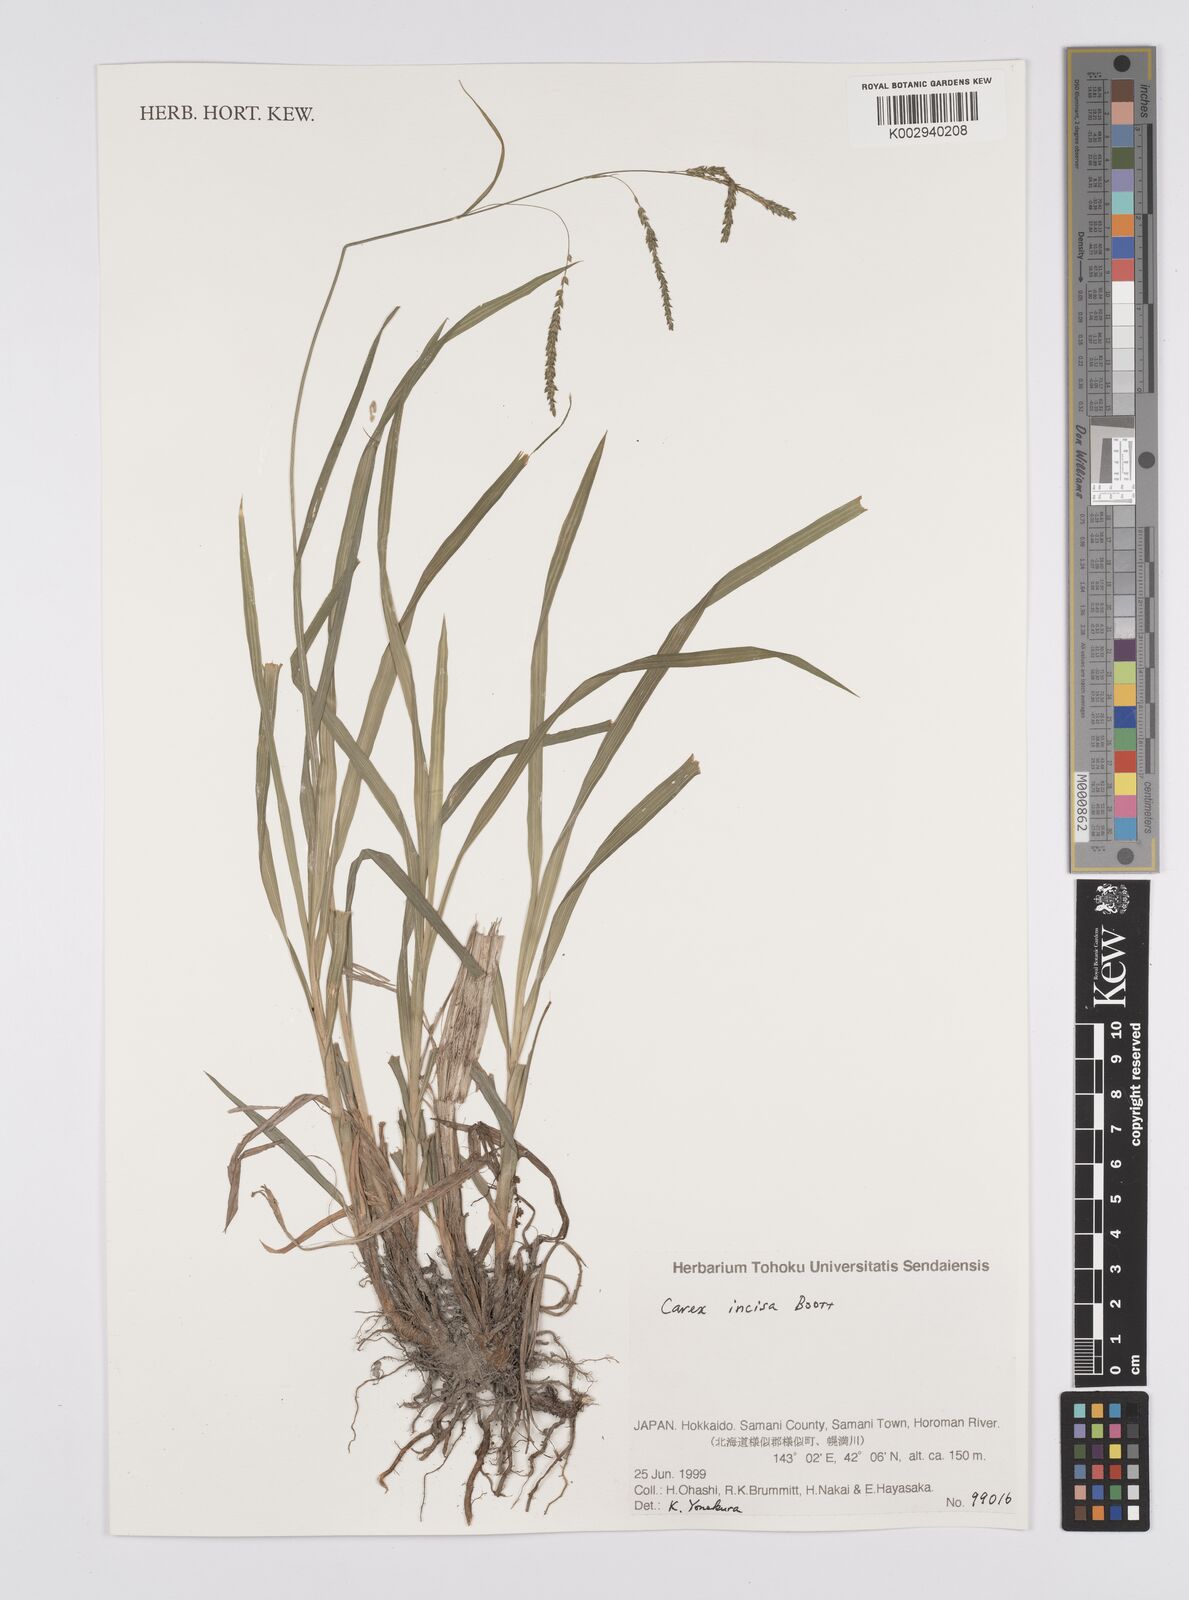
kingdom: Plantae
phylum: Tracheophyta
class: Liliopsida
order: Poales
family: Cyperaceae
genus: Carex
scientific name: Carex incisa
